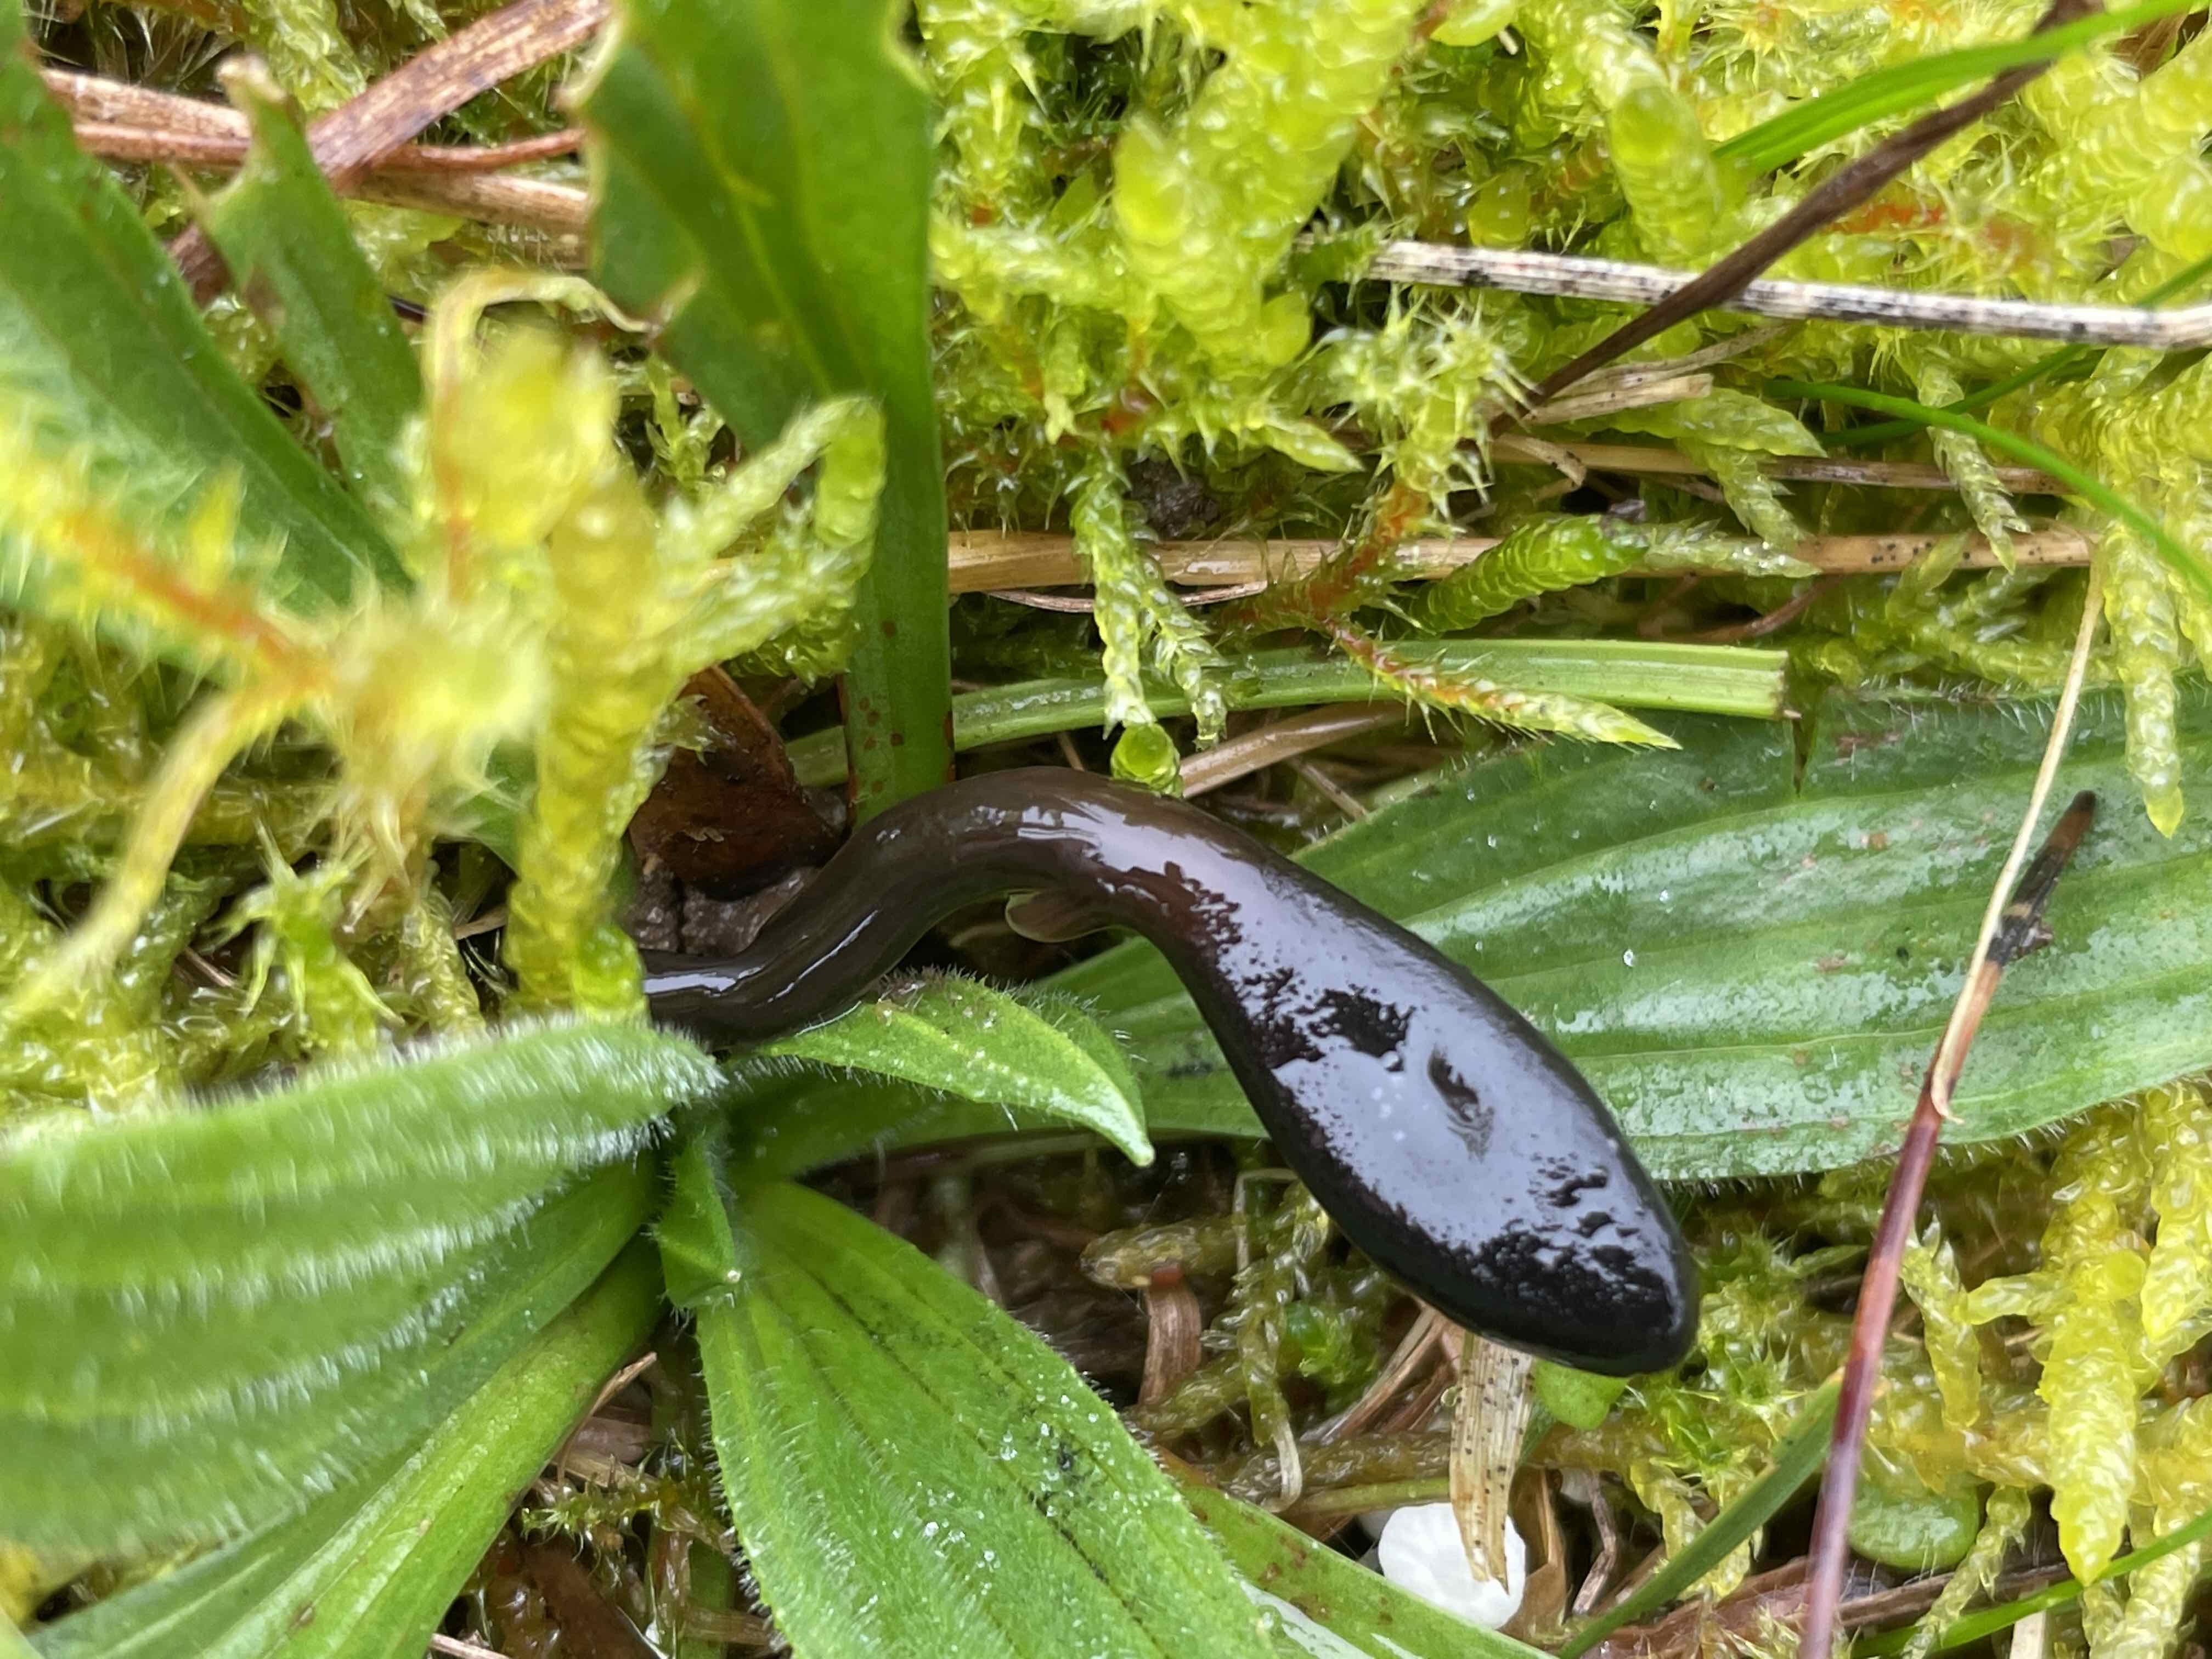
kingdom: Fungi
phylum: Ascomycota
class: Geoglossomycetes
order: Geoglossales
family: Geoglossaceae
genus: Glutinoglossum
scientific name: Glutinoglossum glutinosum
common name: slimet jordtunge
